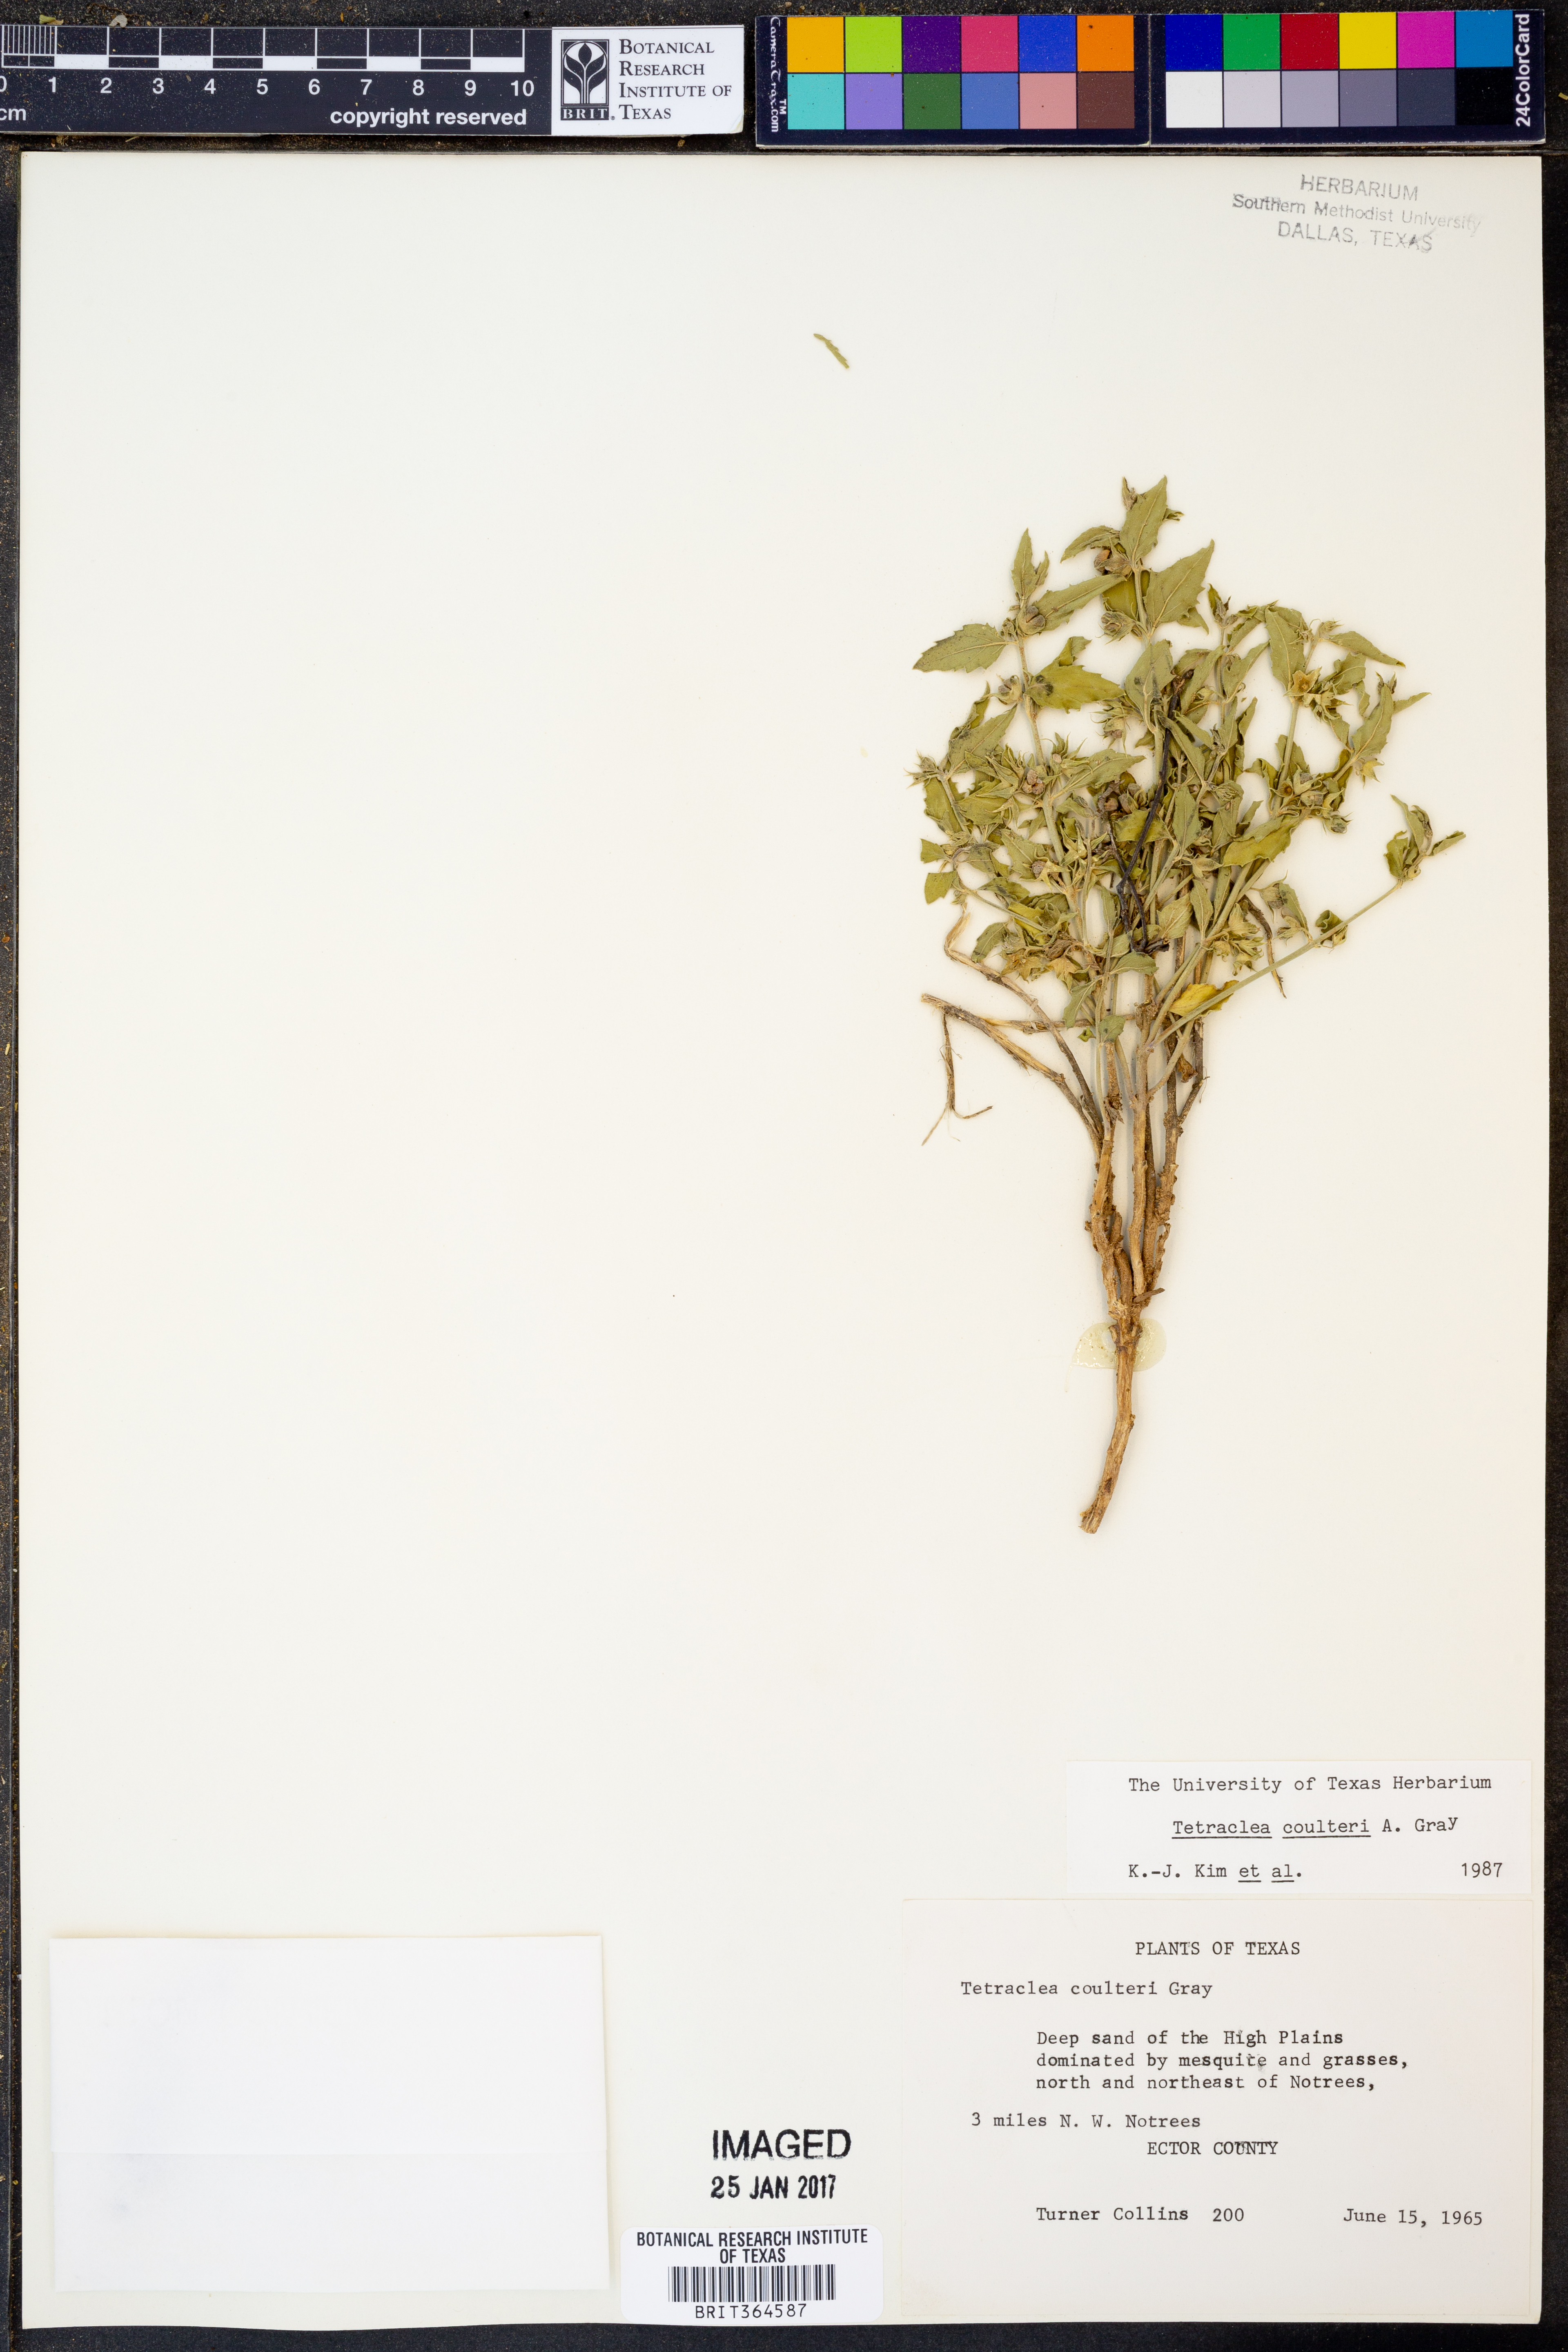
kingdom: Plantae
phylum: Tracheophyta
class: Magnoliopsida
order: Lamiales
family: Lamiaceae
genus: Tetraclea
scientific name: Tetraclea coulteri
